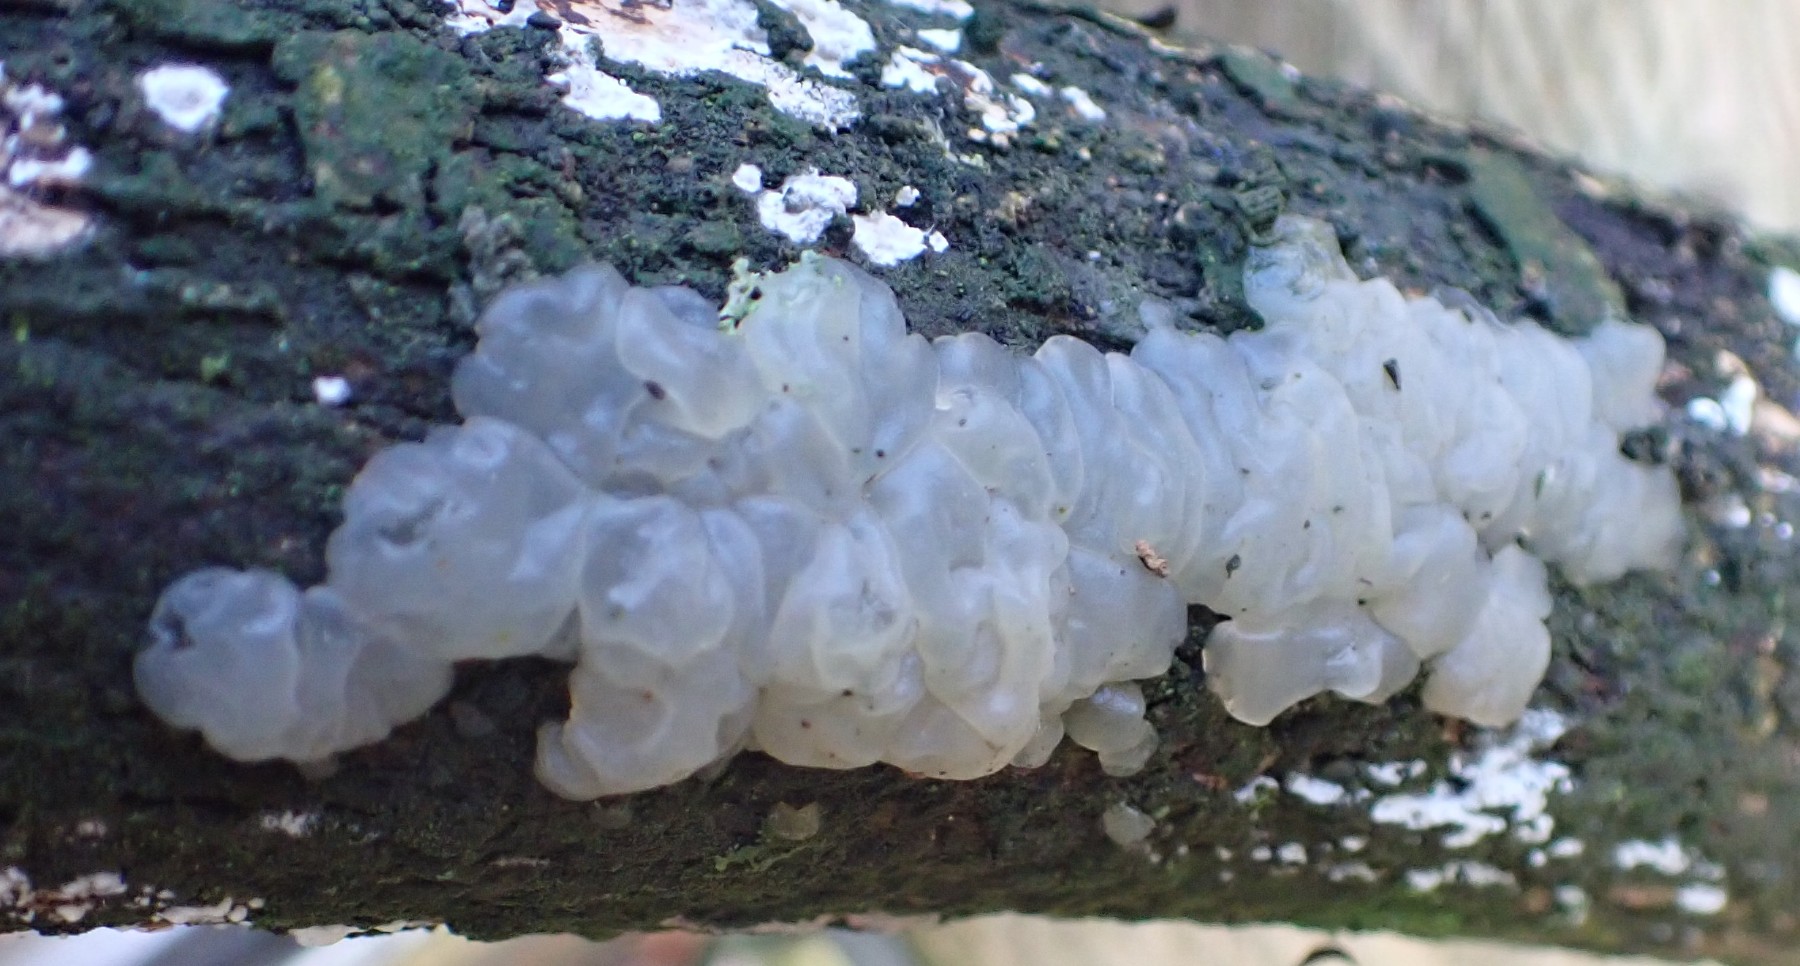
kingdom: Fungi
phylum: Basidiomycota
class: Agaricomycetes
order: Auriculariales
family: Auriculariaceae
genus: Exidia
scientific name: Exidia thuretiana
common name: hvidlig bævretop
